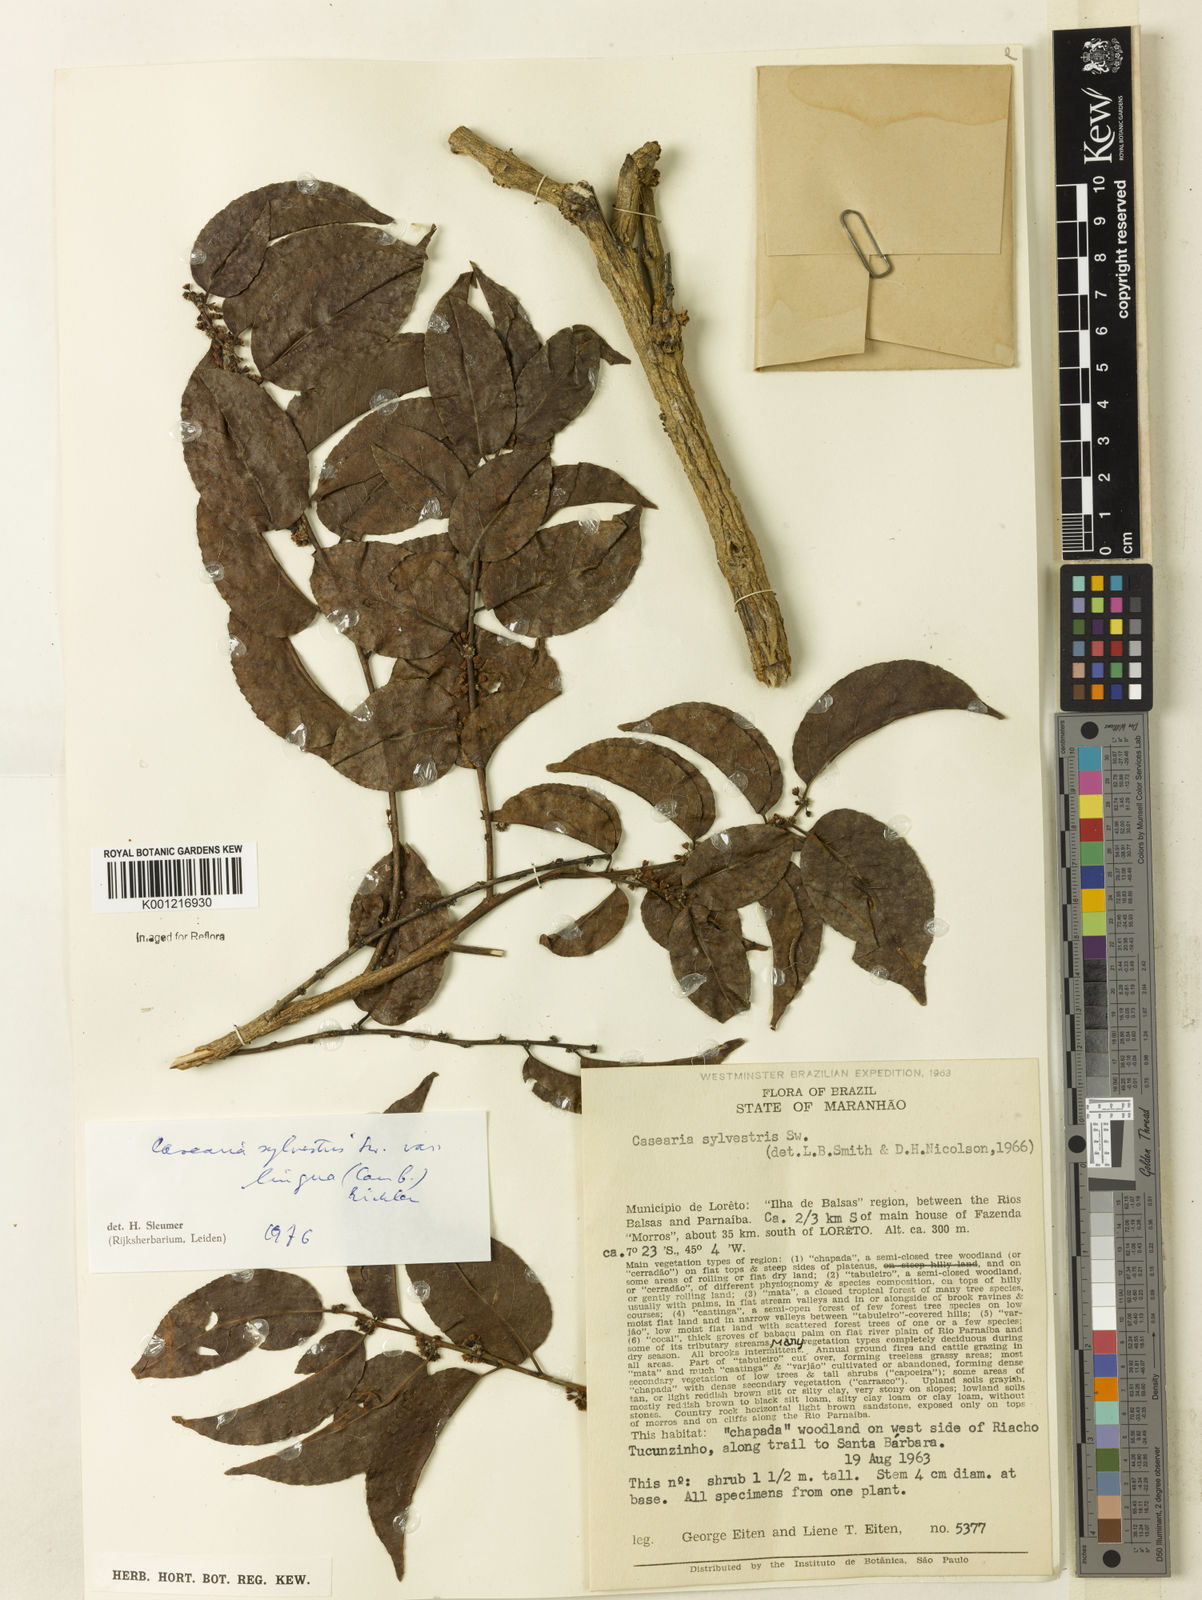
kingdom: Plantae
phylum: Tracheophyta
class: Magnoliopsida
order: Malpighiales
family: Salicaceae
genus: Casearia
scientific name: Casearia sylvestris
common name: Wild sage
